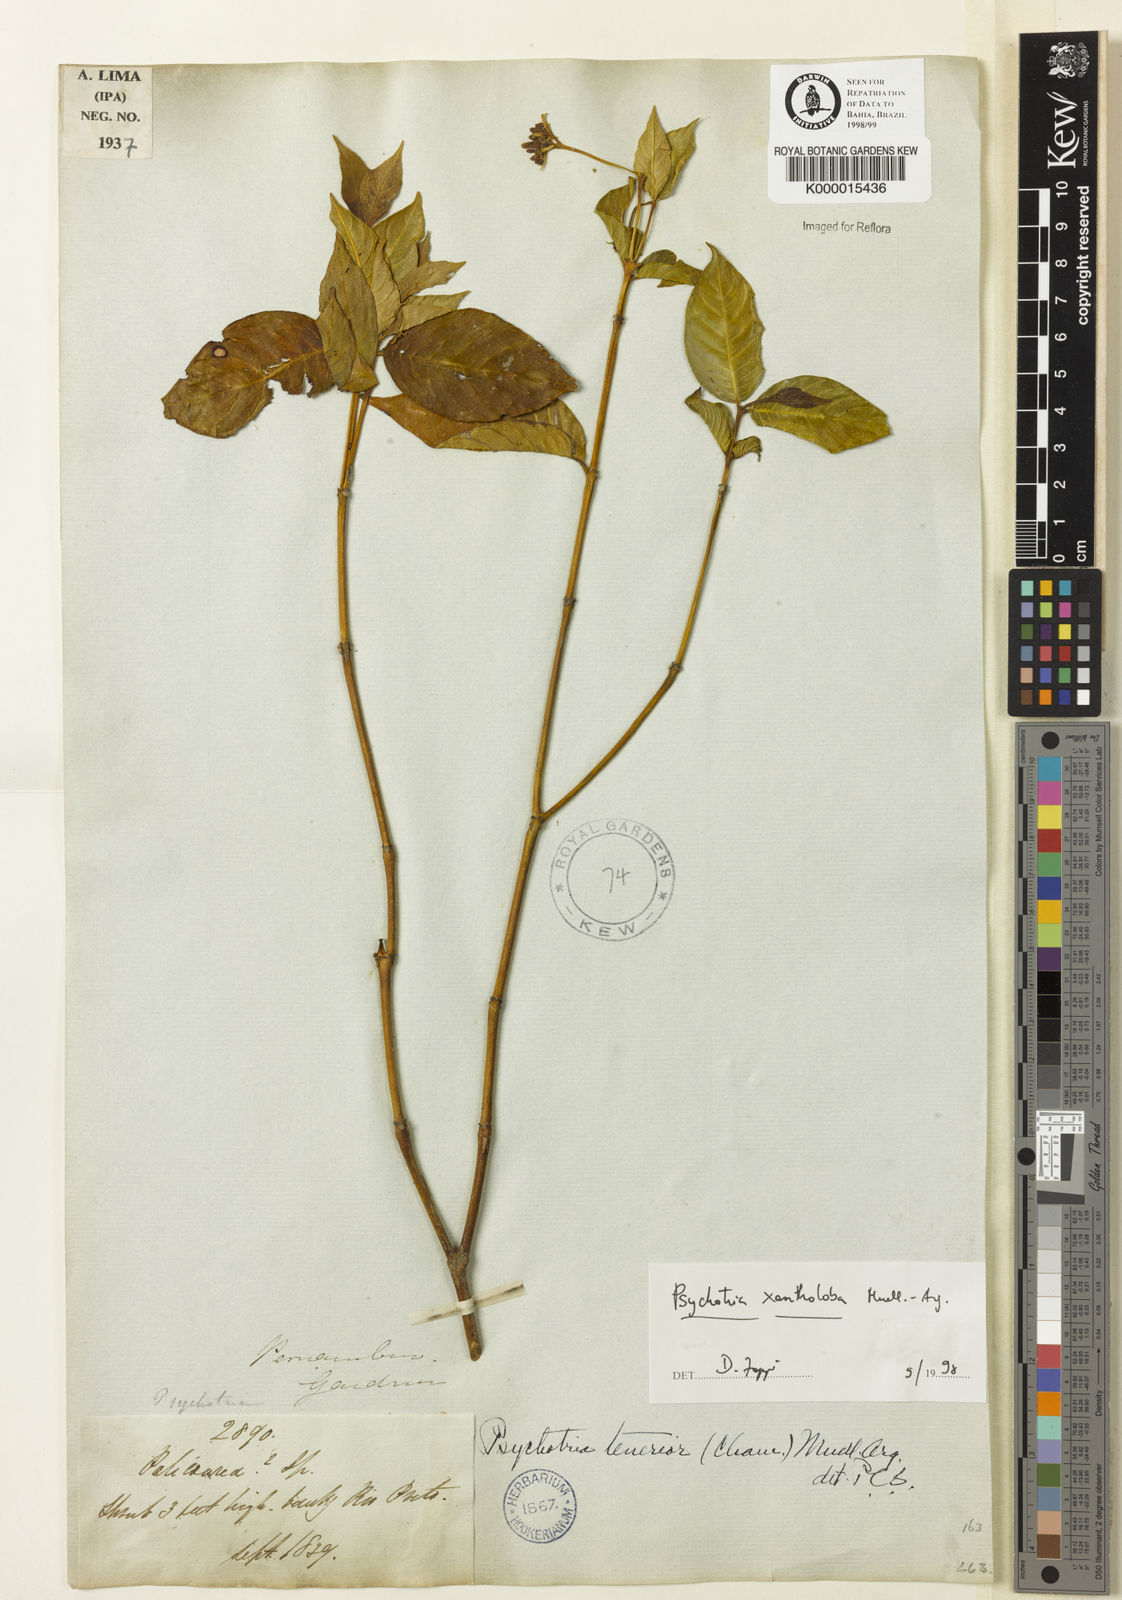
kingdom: Plantae
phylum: Tracheophyta
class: Magnoliopsida
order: Gentianales
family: Rubiaceae
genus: Psychotria
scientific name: Psychotria xantholoba
